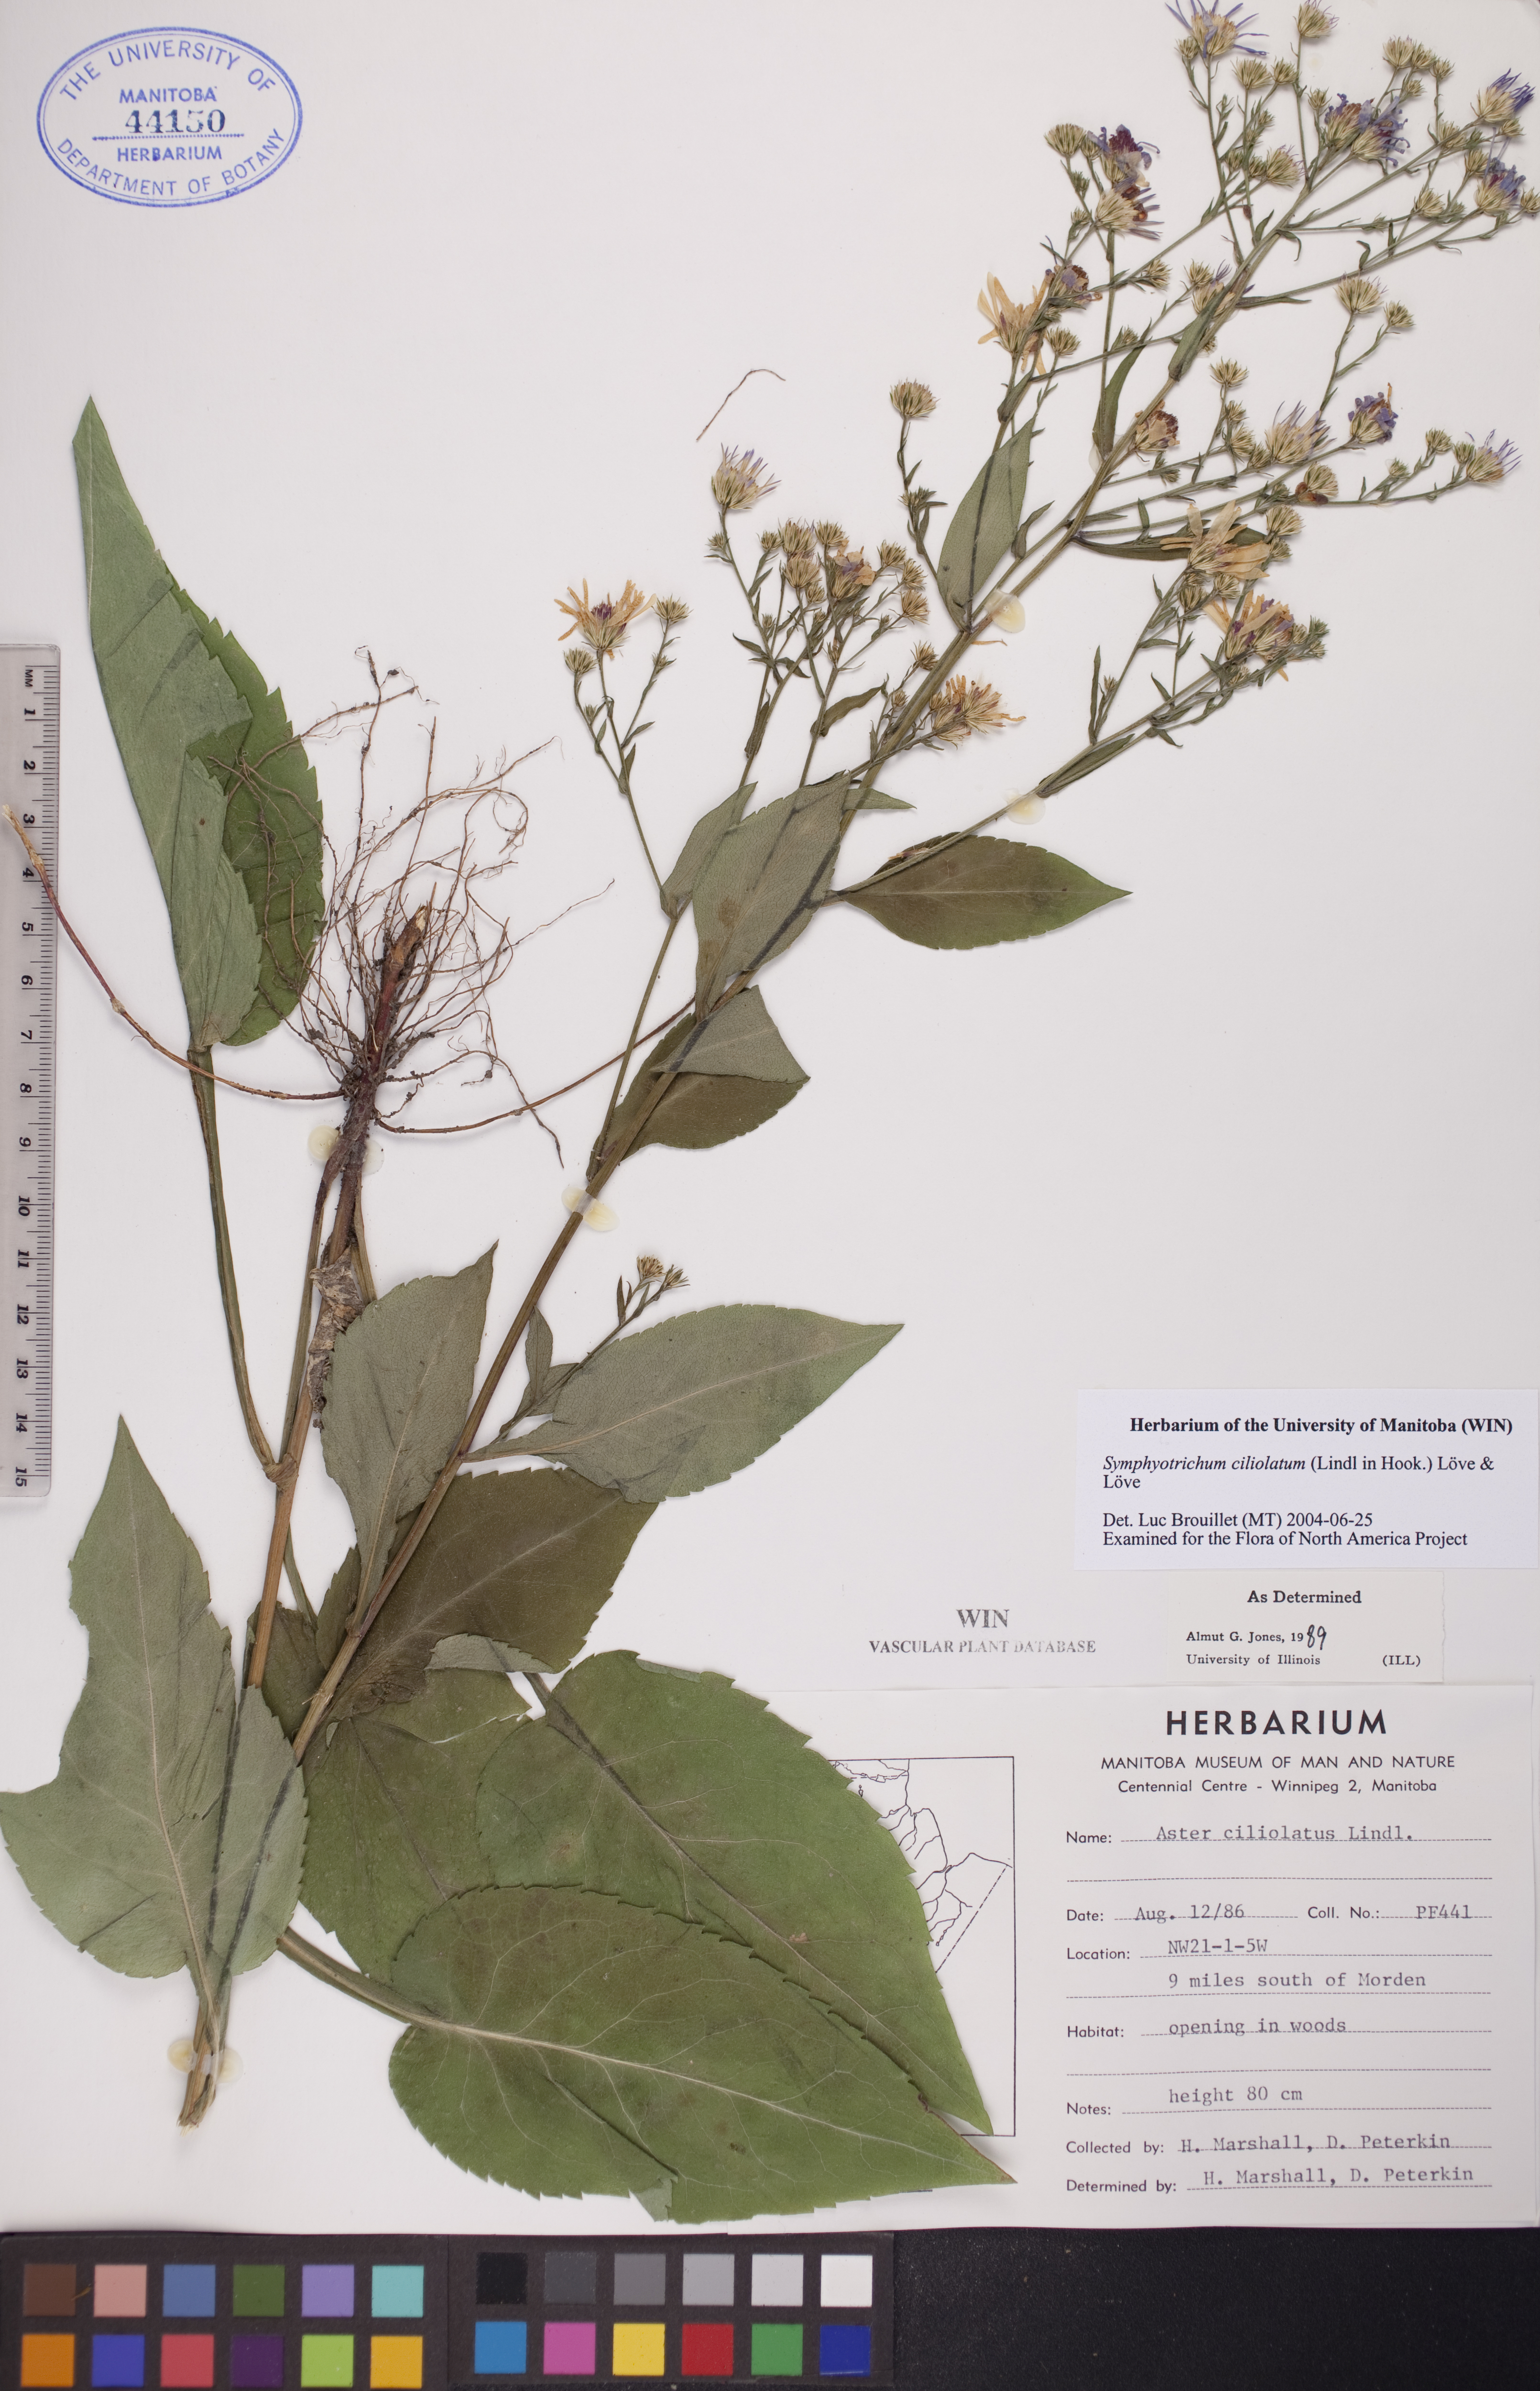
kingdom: Plantae
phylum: Tracheophyta
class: Magnoliopsida
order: Asterales
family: Asteraceae
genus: Symphyotrichum
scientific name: Symphyotrichum ciliolatum
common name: Fringed blue aster
